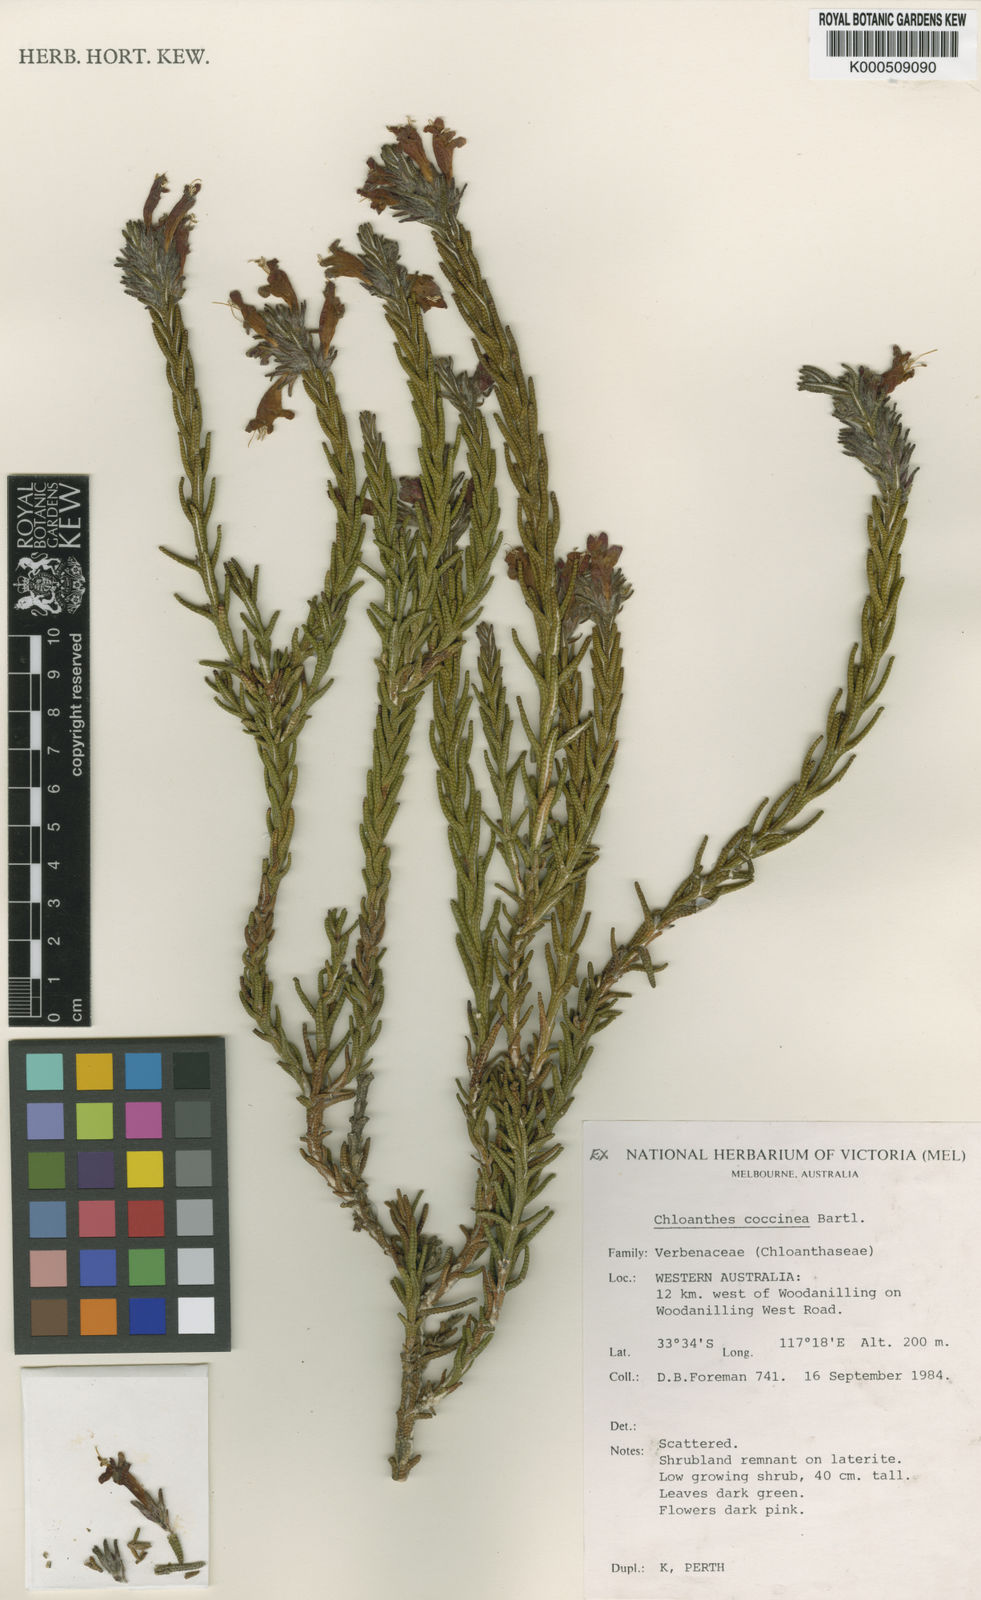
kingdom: Plantae
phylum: Tracheophyta
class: Magnoliopsida
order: Lamiales
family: Lamiaceae
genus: Chloanthes
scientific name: Chloanthes coccinea
